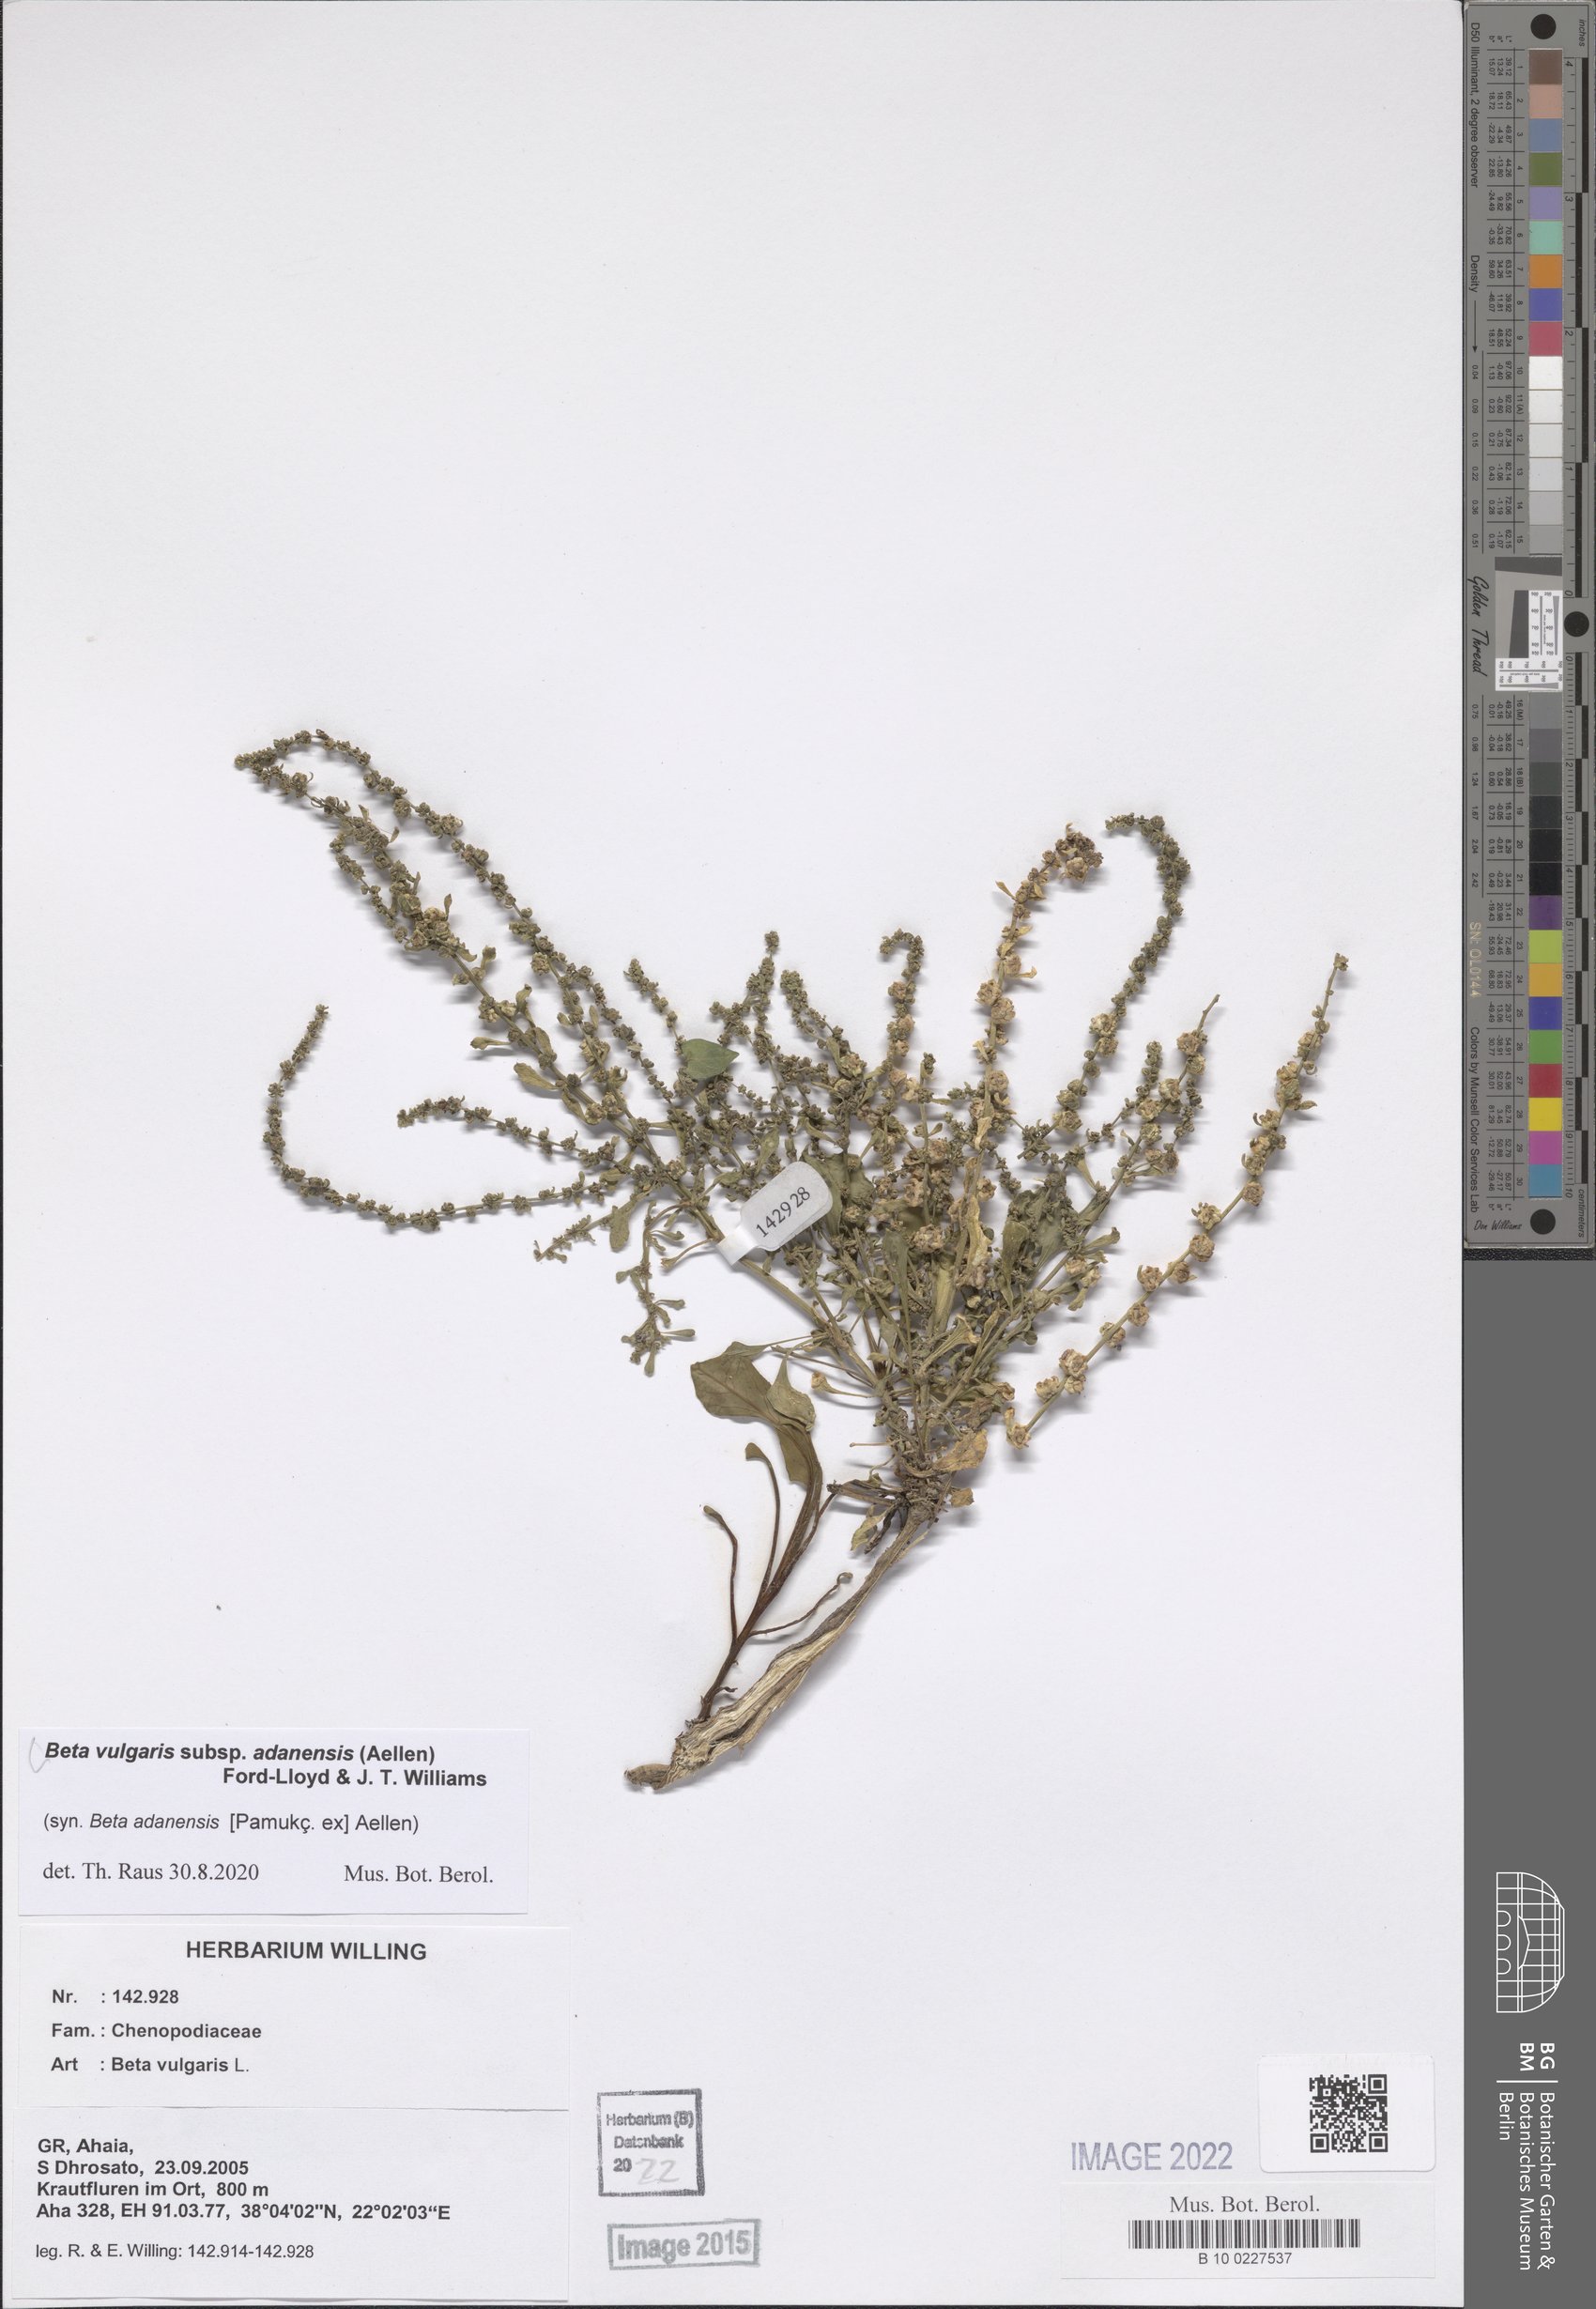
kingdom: Plantae
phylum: Tracheophyta
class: Magnoliopsida
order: Caryophyllales
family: Amaranthaceae
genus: Beta
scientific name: Beta adanensis
